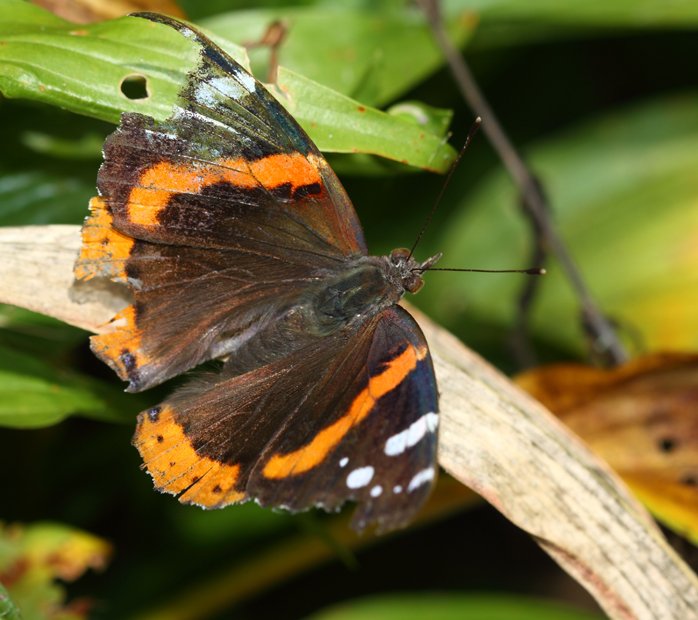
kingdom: Animalia
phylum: Arthropoda
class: Insecta
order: Lepidoptera
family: Nymphalidae
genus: Vanessa
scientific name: Vanessa atalanta
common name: Red Admiral
